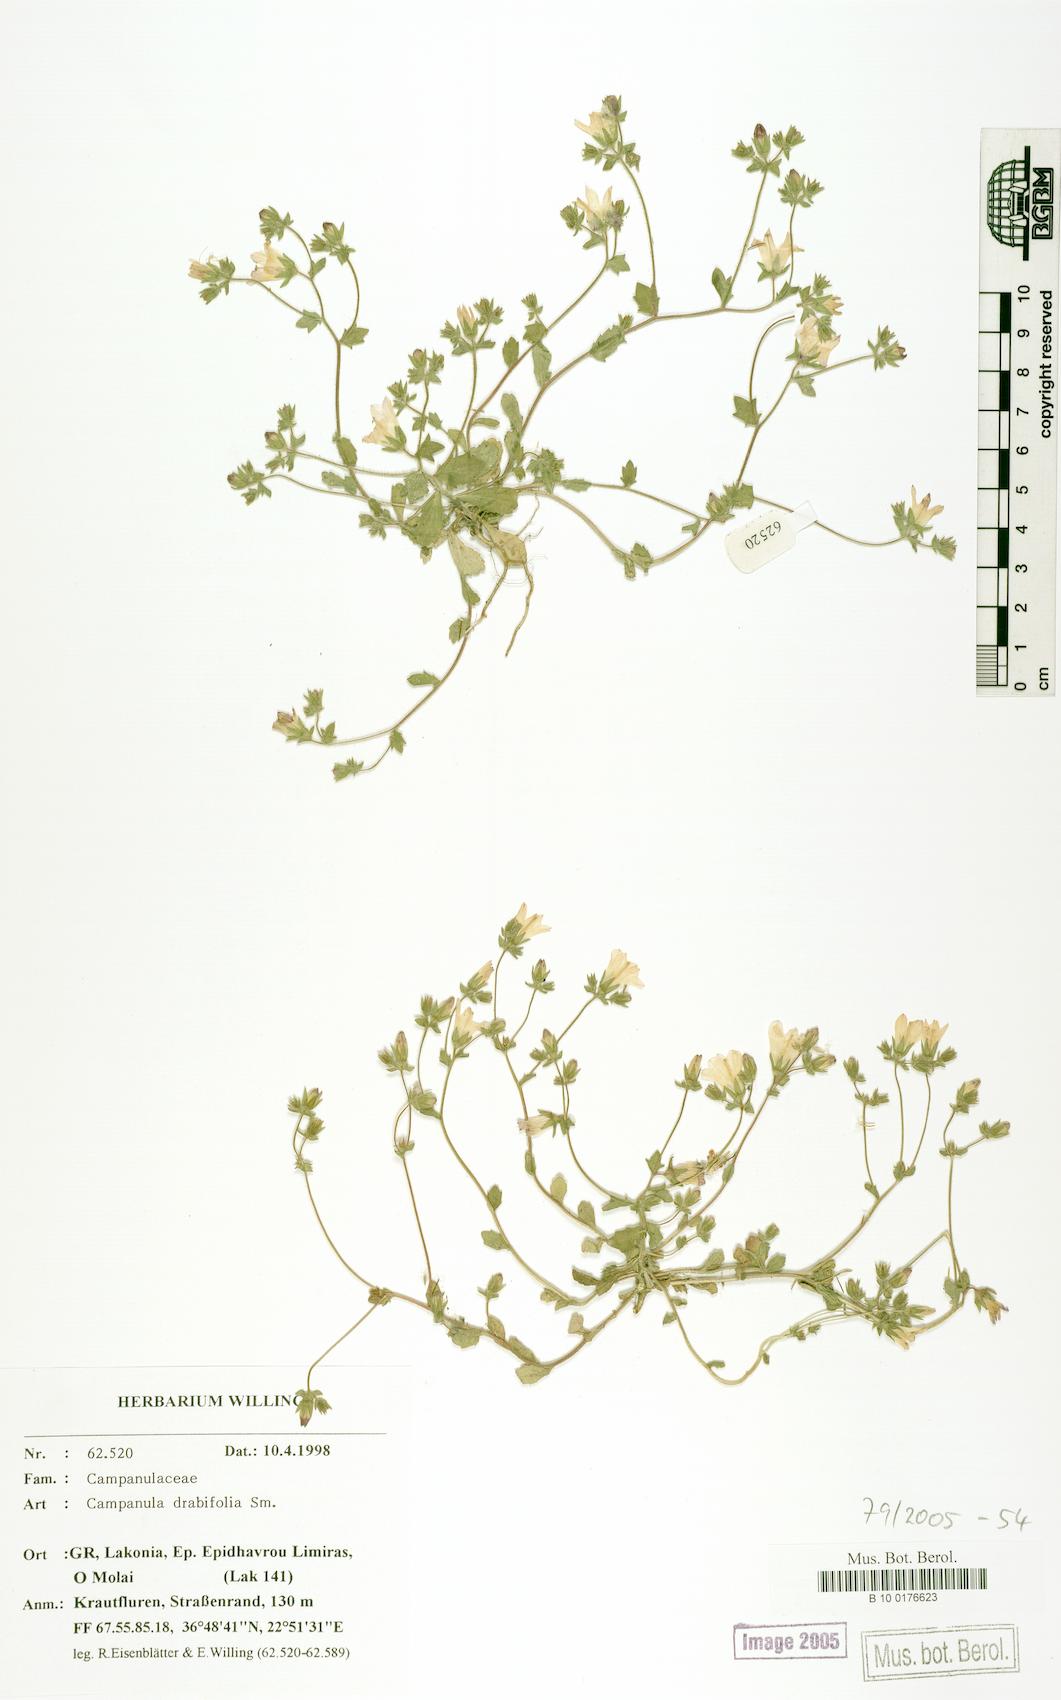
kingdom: Plantae
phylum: Tracheophyta
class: Magnoliopsida
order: Asterales
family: Campanulaceae
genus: Campanula
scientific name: Campanula drabifolia
